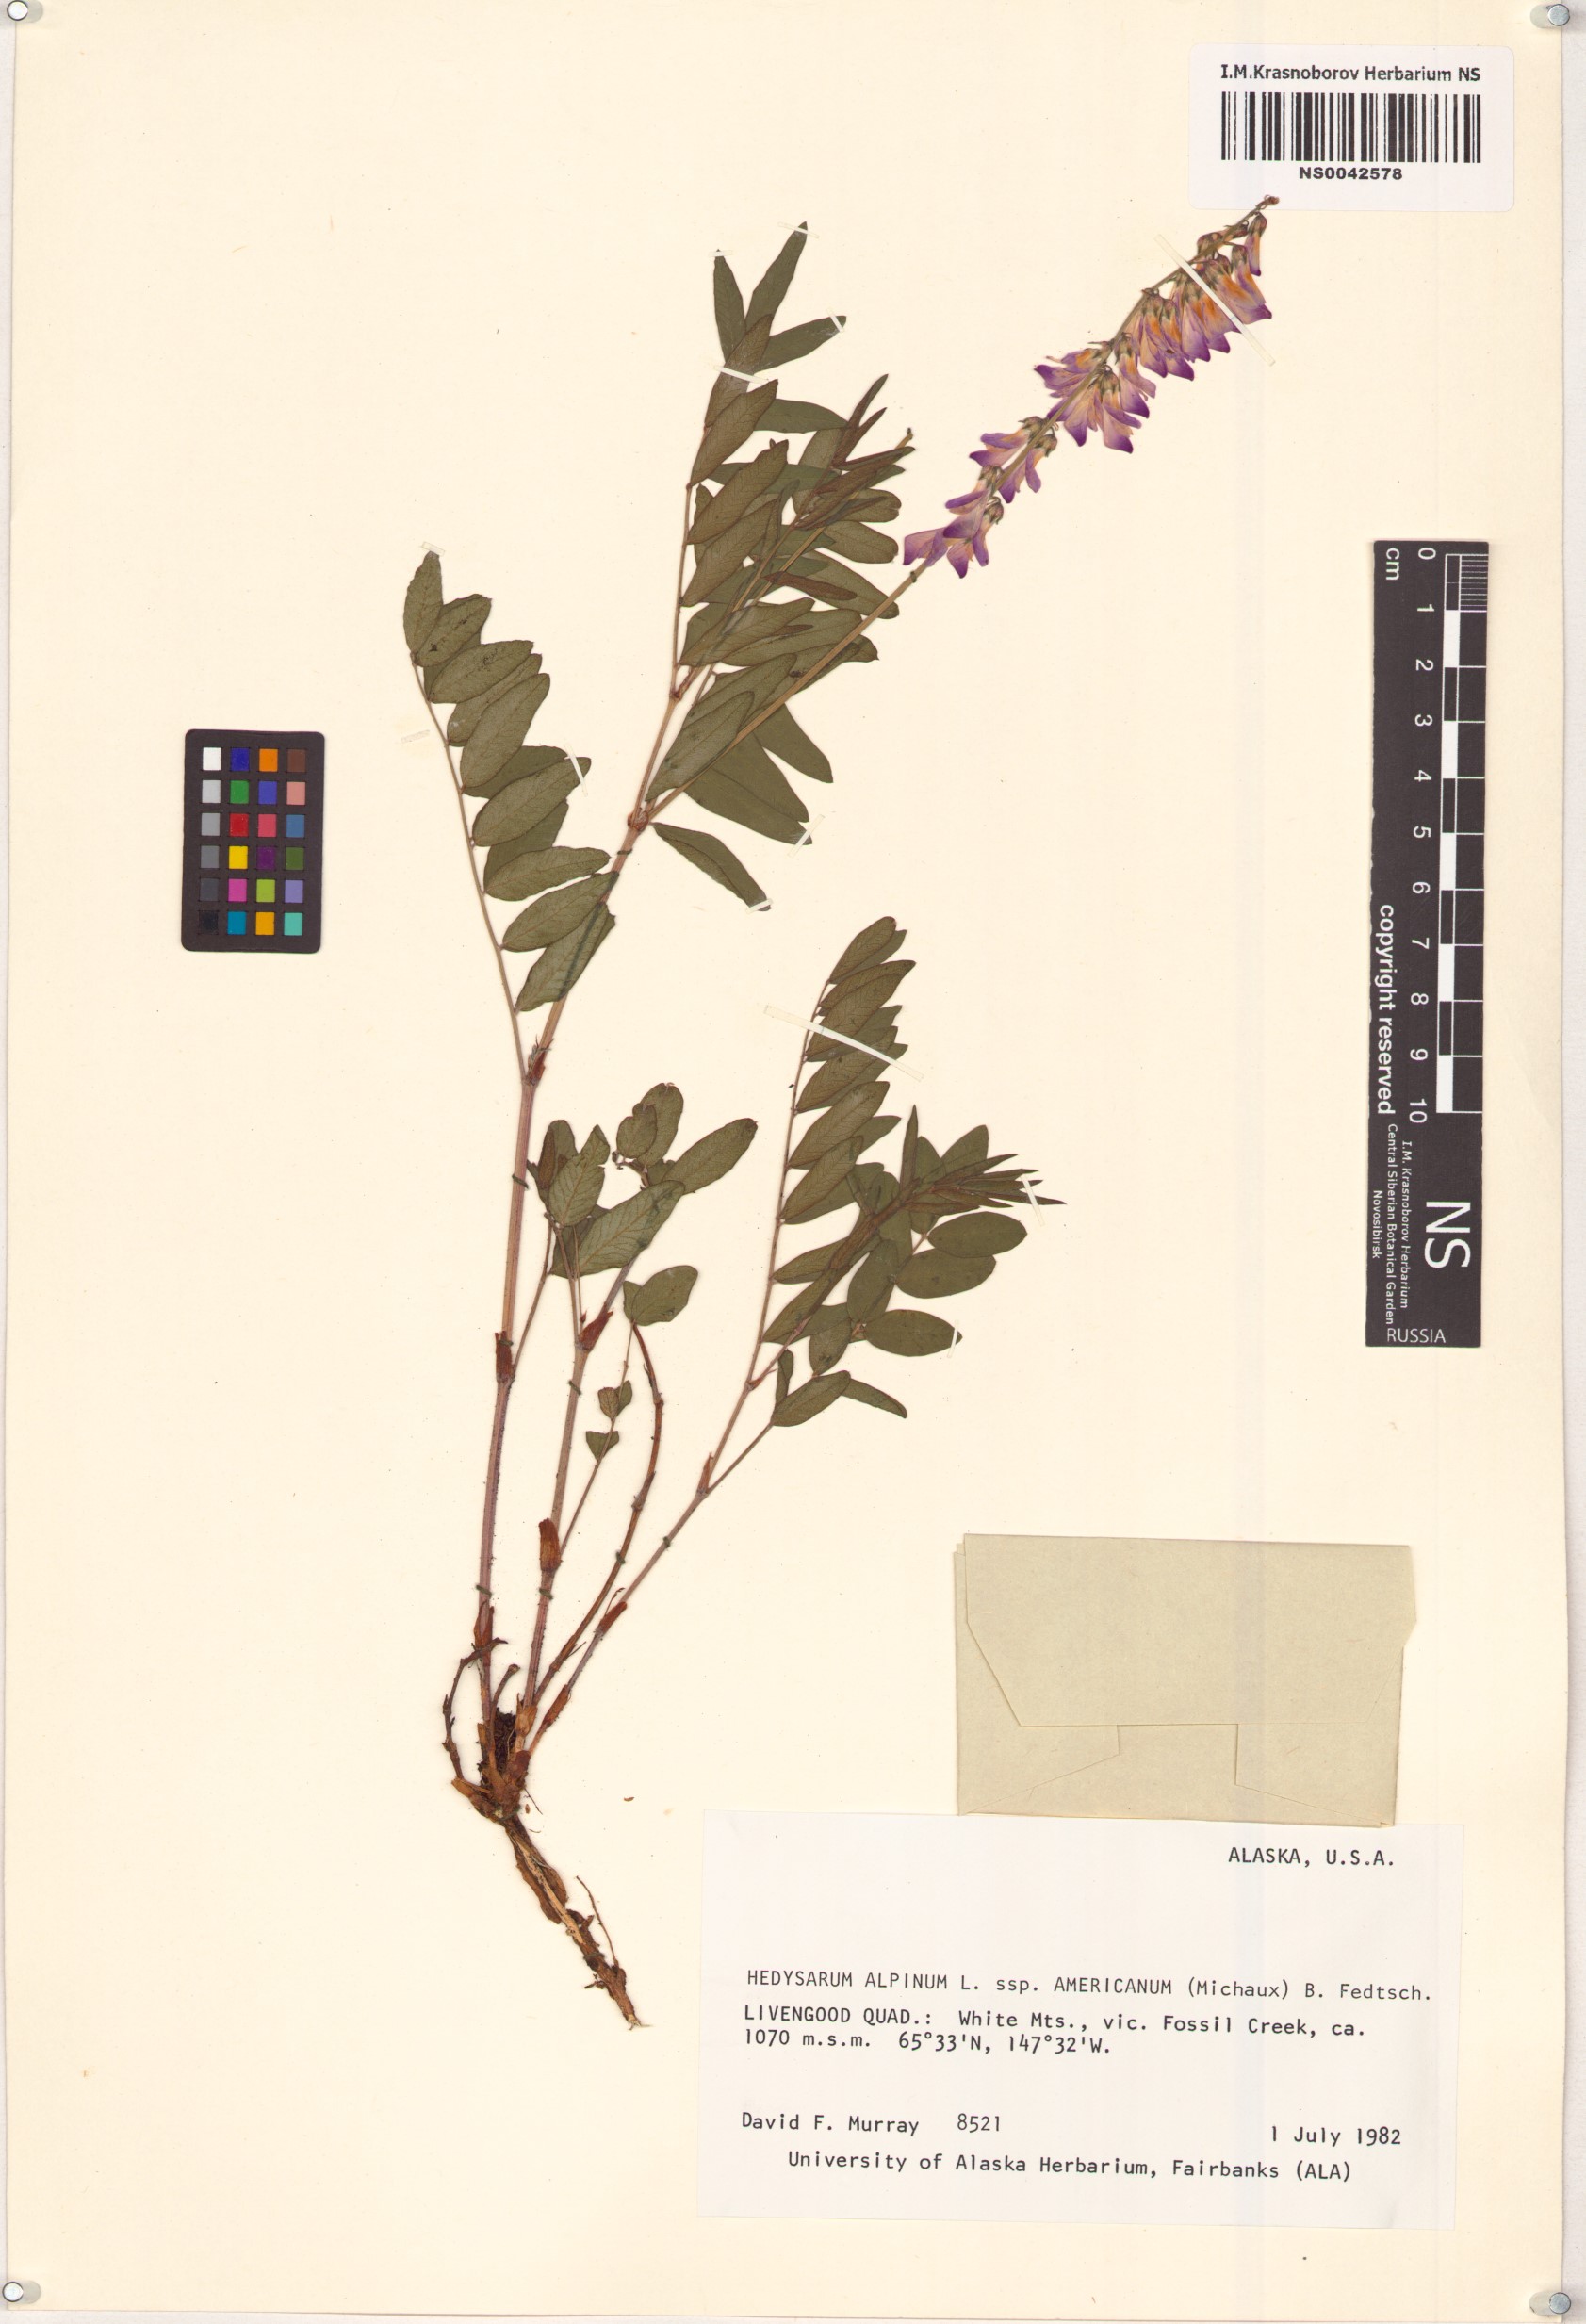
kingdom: Plantae
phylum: Tracheophyta
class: Magnoliopsida
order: Fabales
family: Fabaceae
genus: Hedysarum
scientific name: Hedysarum americanum
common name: Alpine hedysarum
